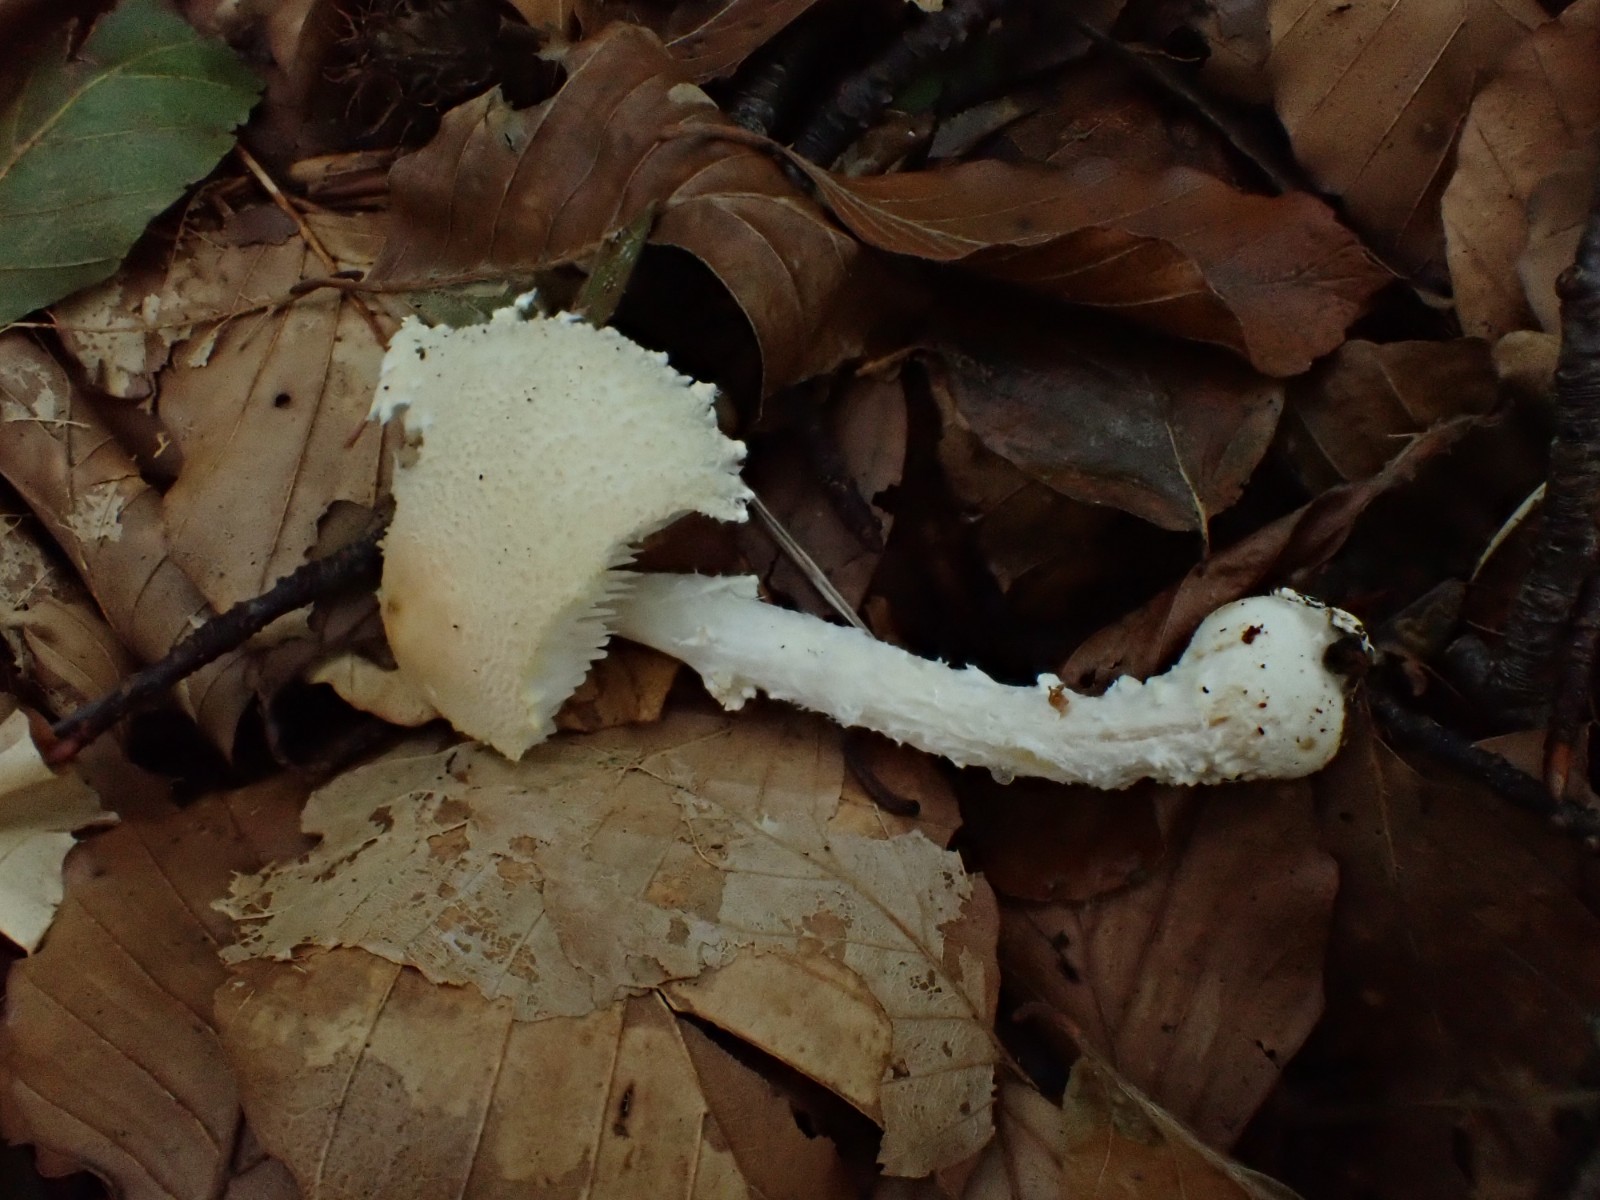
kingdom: Fungi
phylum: Basidiomycota
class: Agaricomycetes
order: Agaricales
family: Agaricaceae
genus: Lepiota
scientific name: Lepiota clypeolaria
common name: flosset parasolhat
